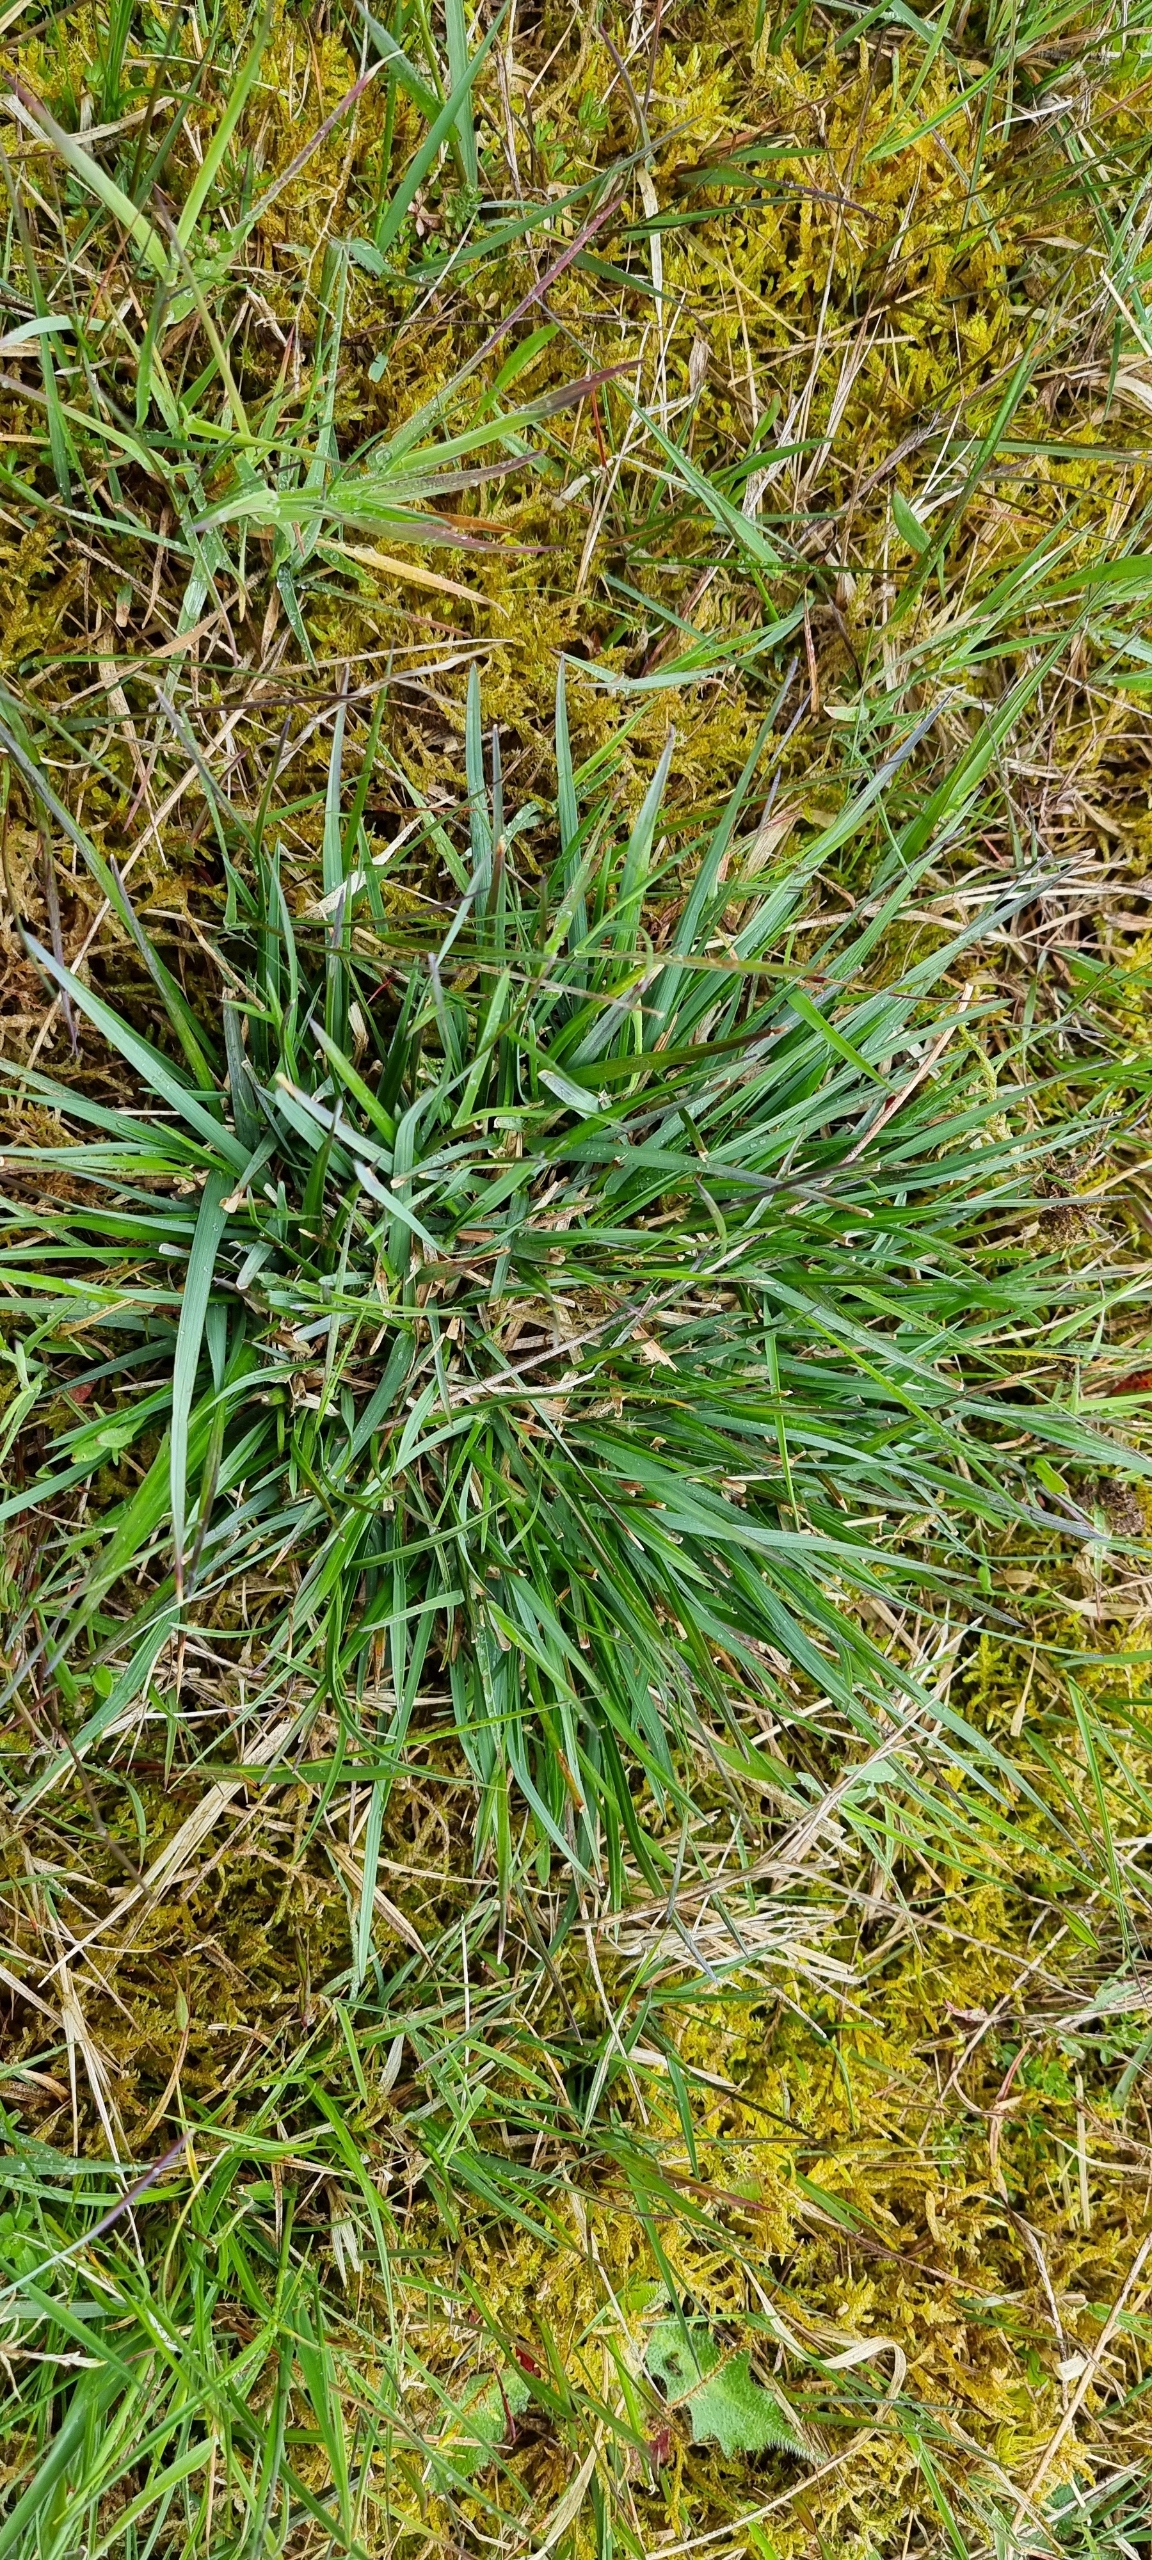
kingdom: Plantae
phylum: Tracheophyta
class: Liliopsida
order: Poales
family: Poaceae
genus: Danthonia
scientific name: Danthonia decumbens
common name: Tandbælg
